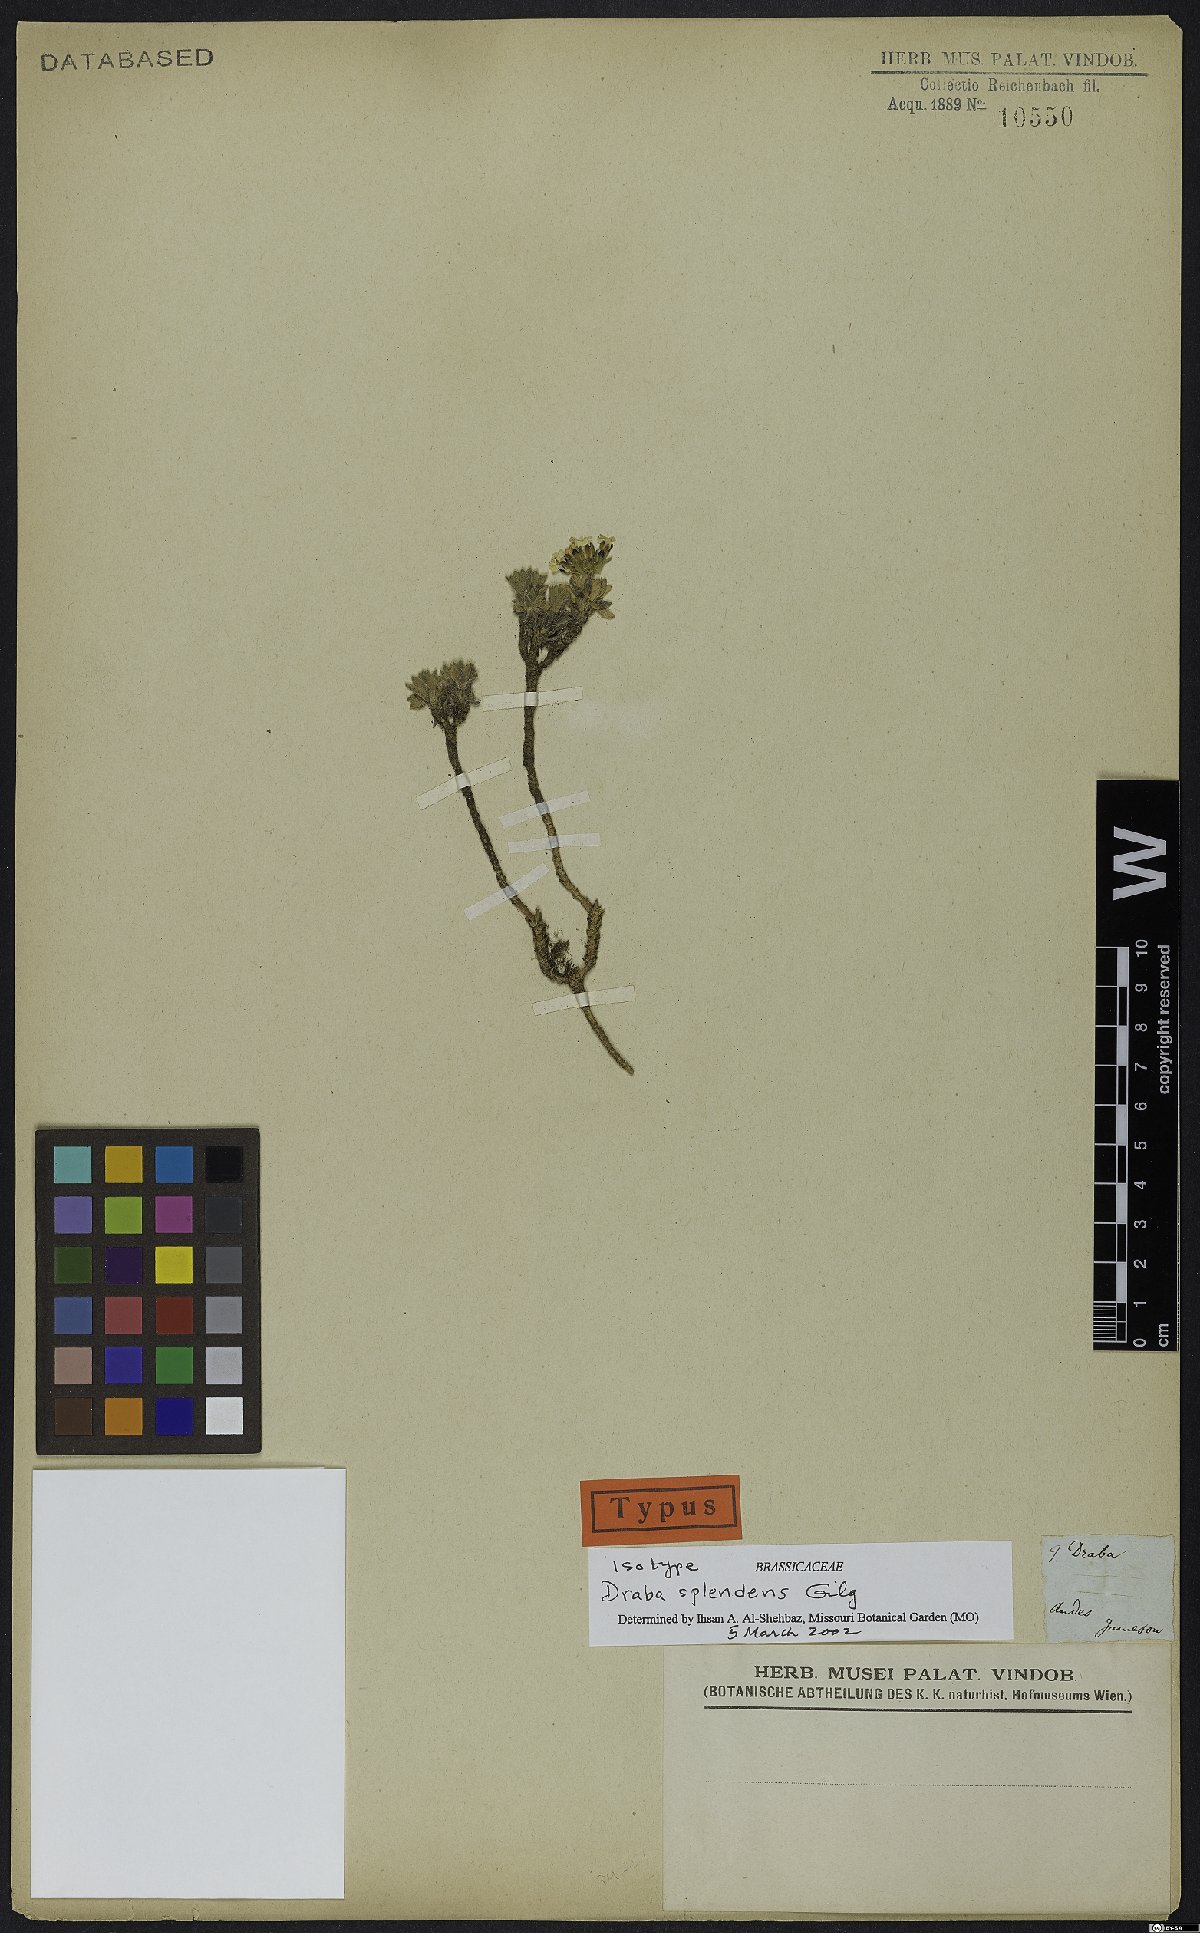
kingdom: Plantae
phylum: Tracheophyta
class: Magnoliopsida
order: Brassicales
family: Brassicaceae
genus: Draba
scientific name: Draba splendens
